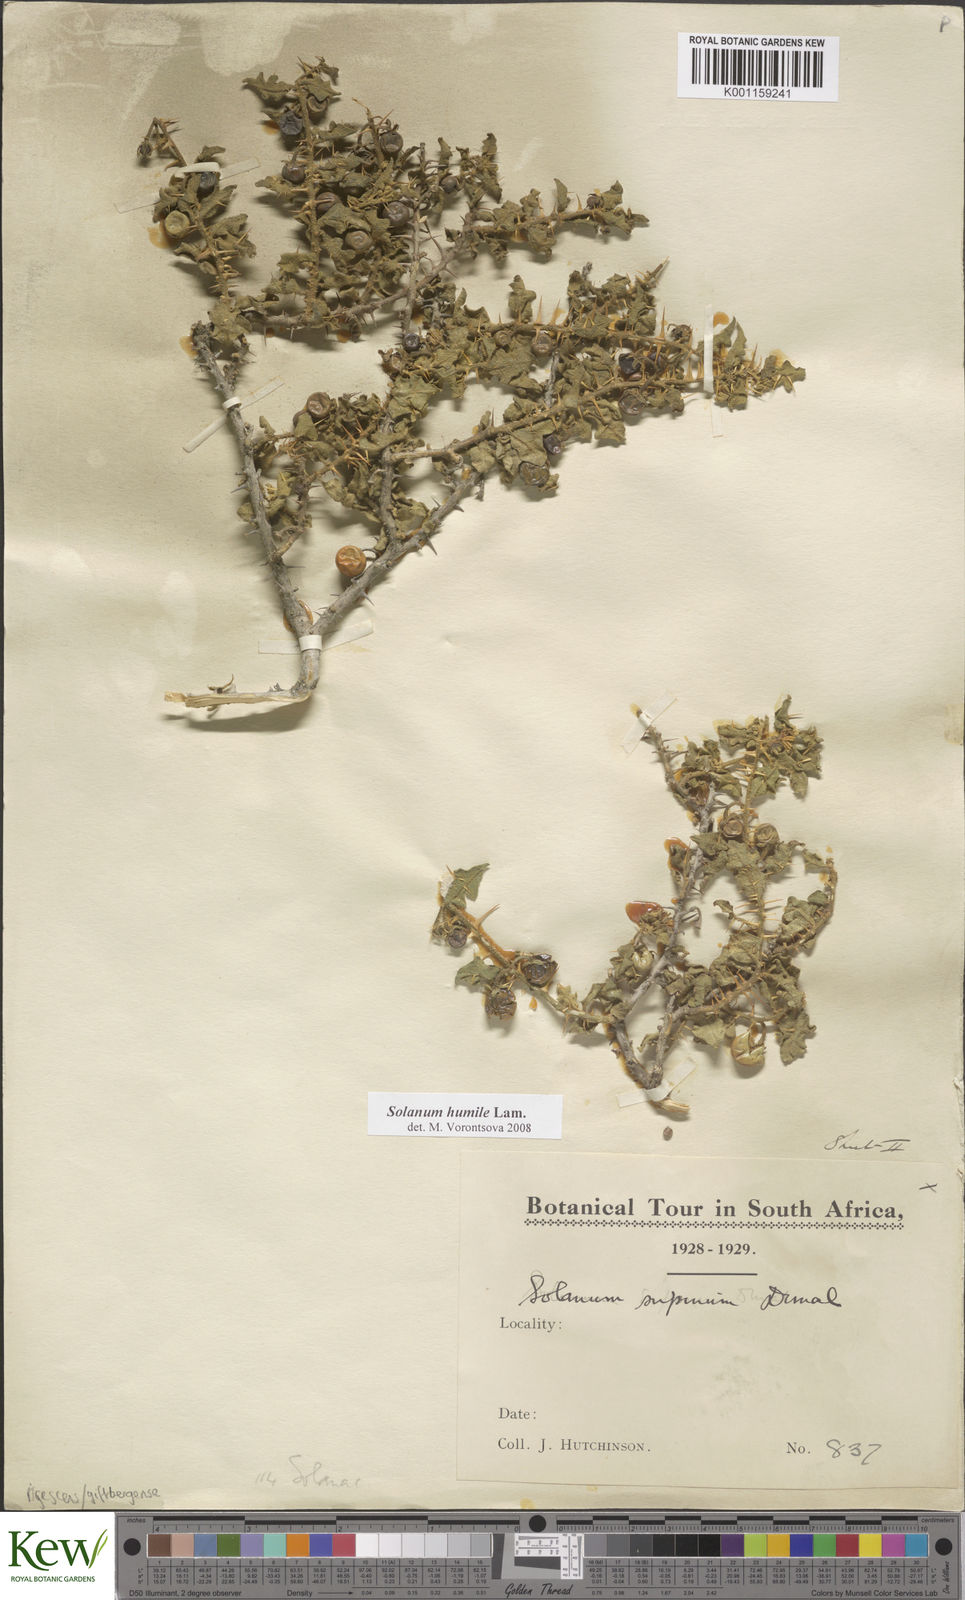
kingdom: Plantae
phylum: Tracheophyta
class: Magnoliopsida
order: Solanales
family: Solanaceae
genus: Solanum
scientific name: Solanum humile
